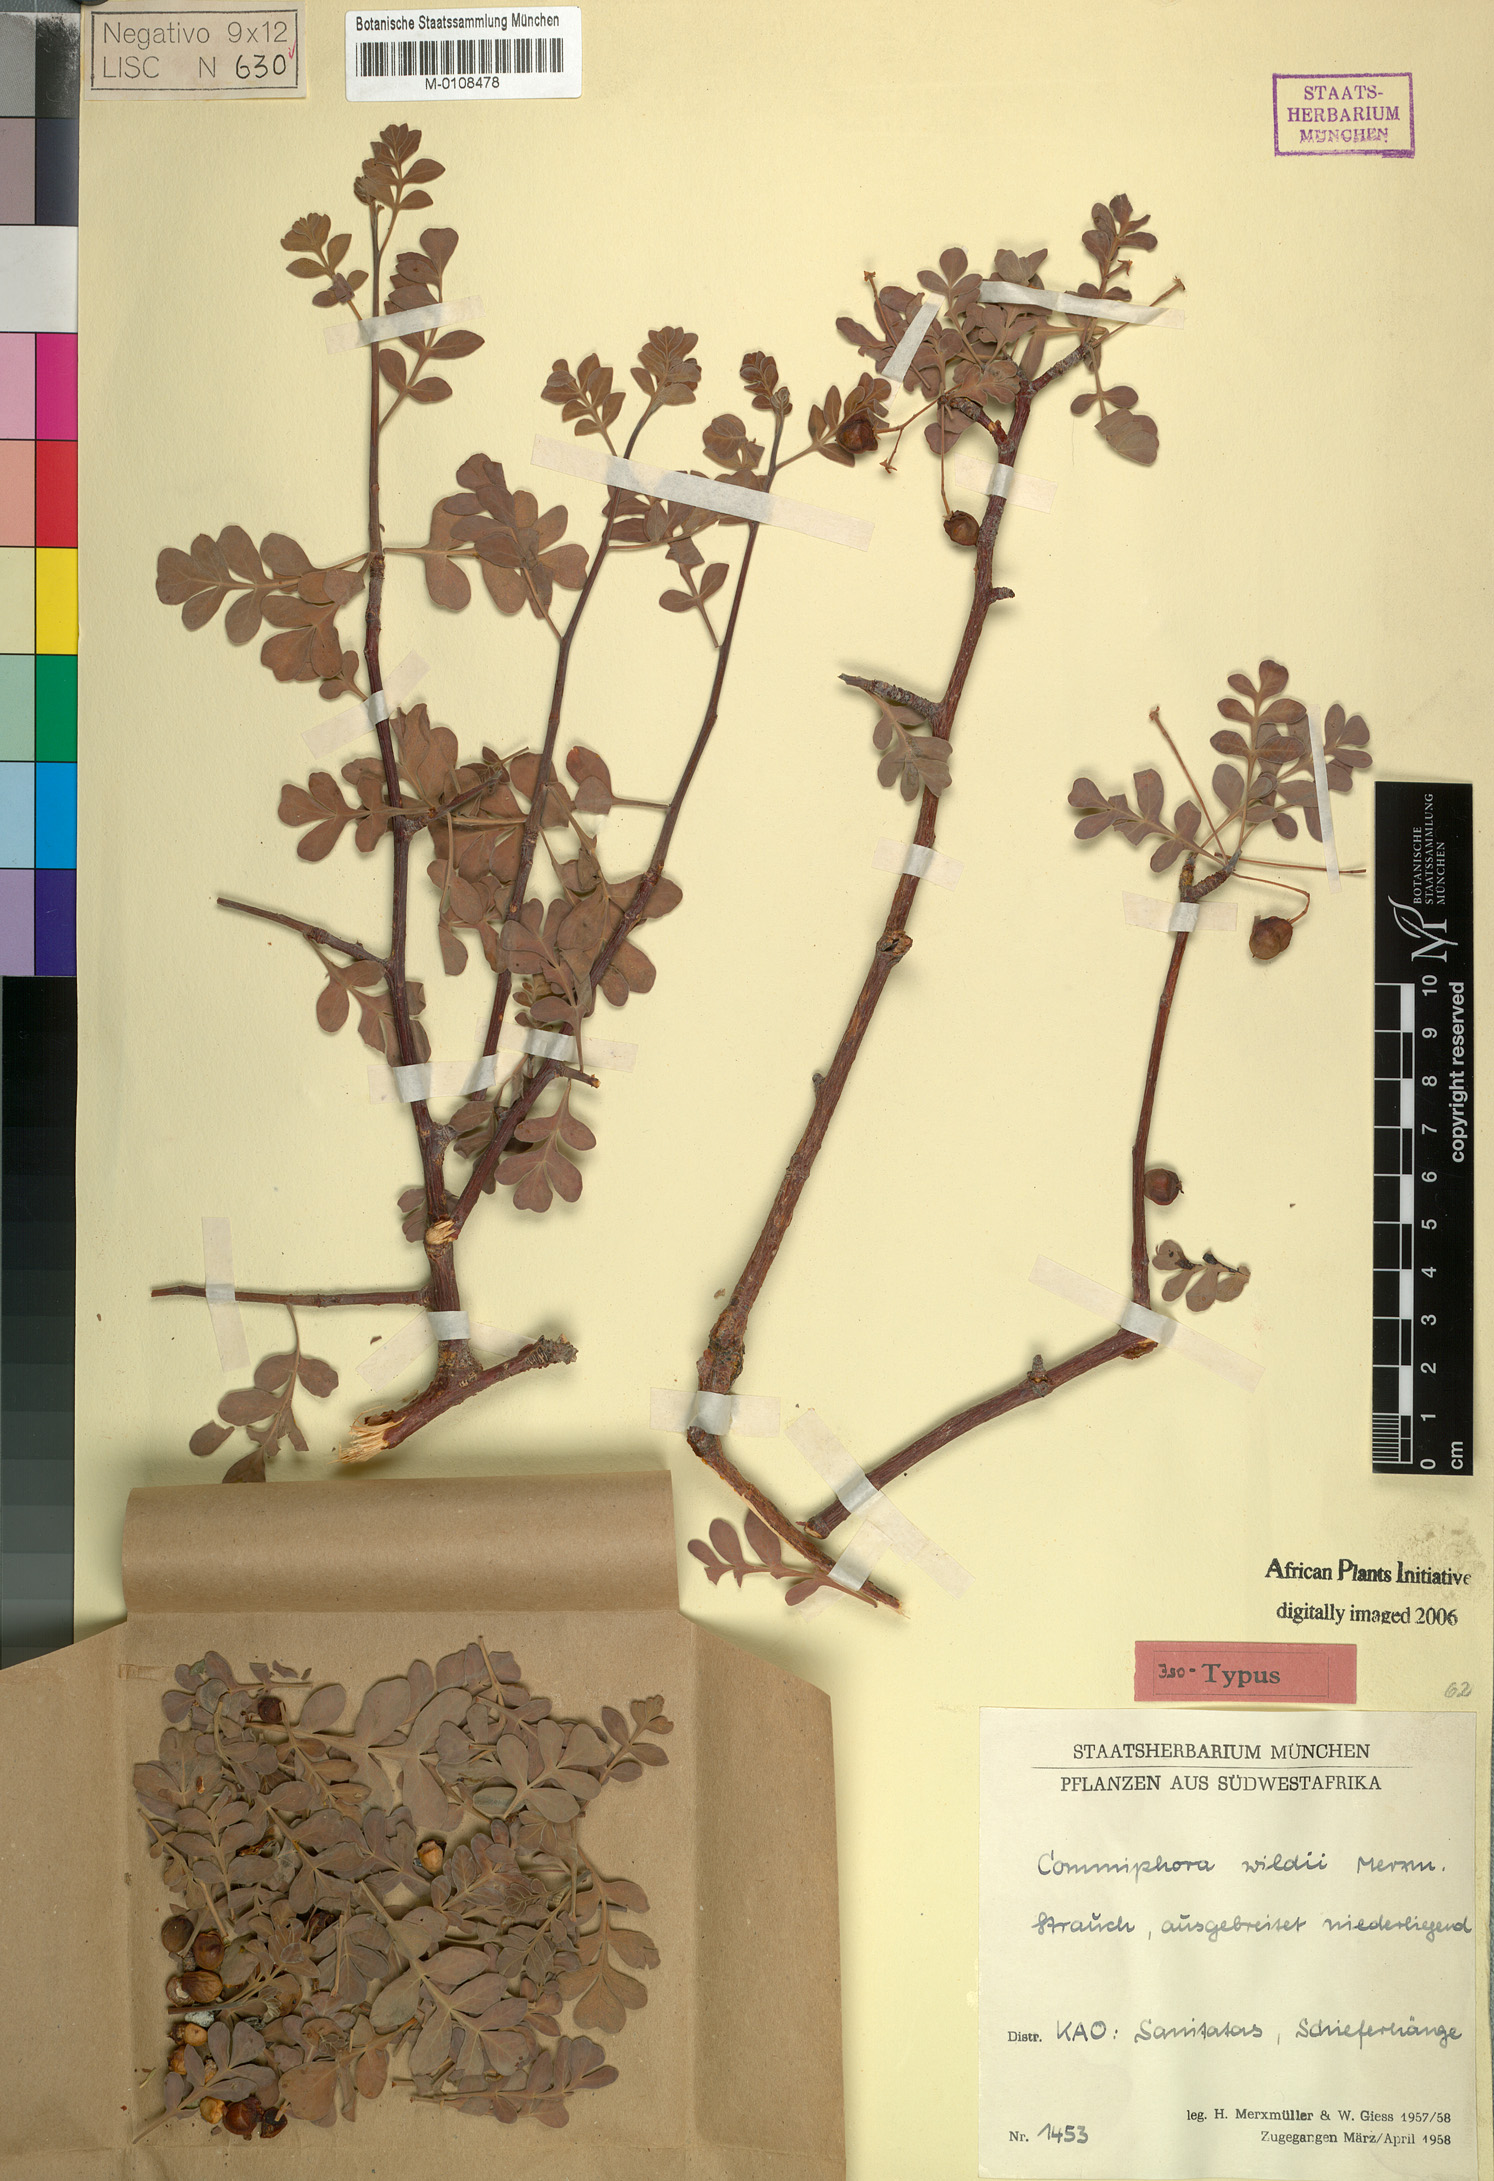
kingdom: Plantae
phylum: Tracheophyta
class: Magnoliopsida
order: Sapindales
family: Burseraceae
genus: Commiphora
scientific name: Commiphora wildii
